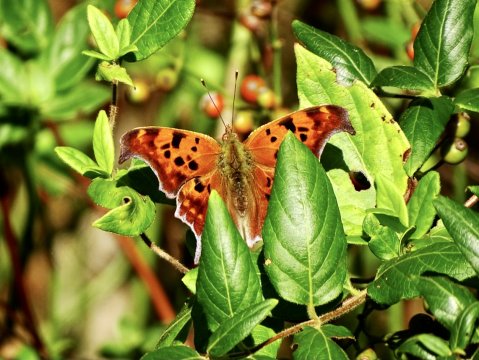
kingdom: Animalia
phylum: Arthropoda
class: Insecta
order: Lepidoptera
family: Nymphalidae
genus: Polygonia
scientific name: Polygonia interrogationis
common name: Question Mark
